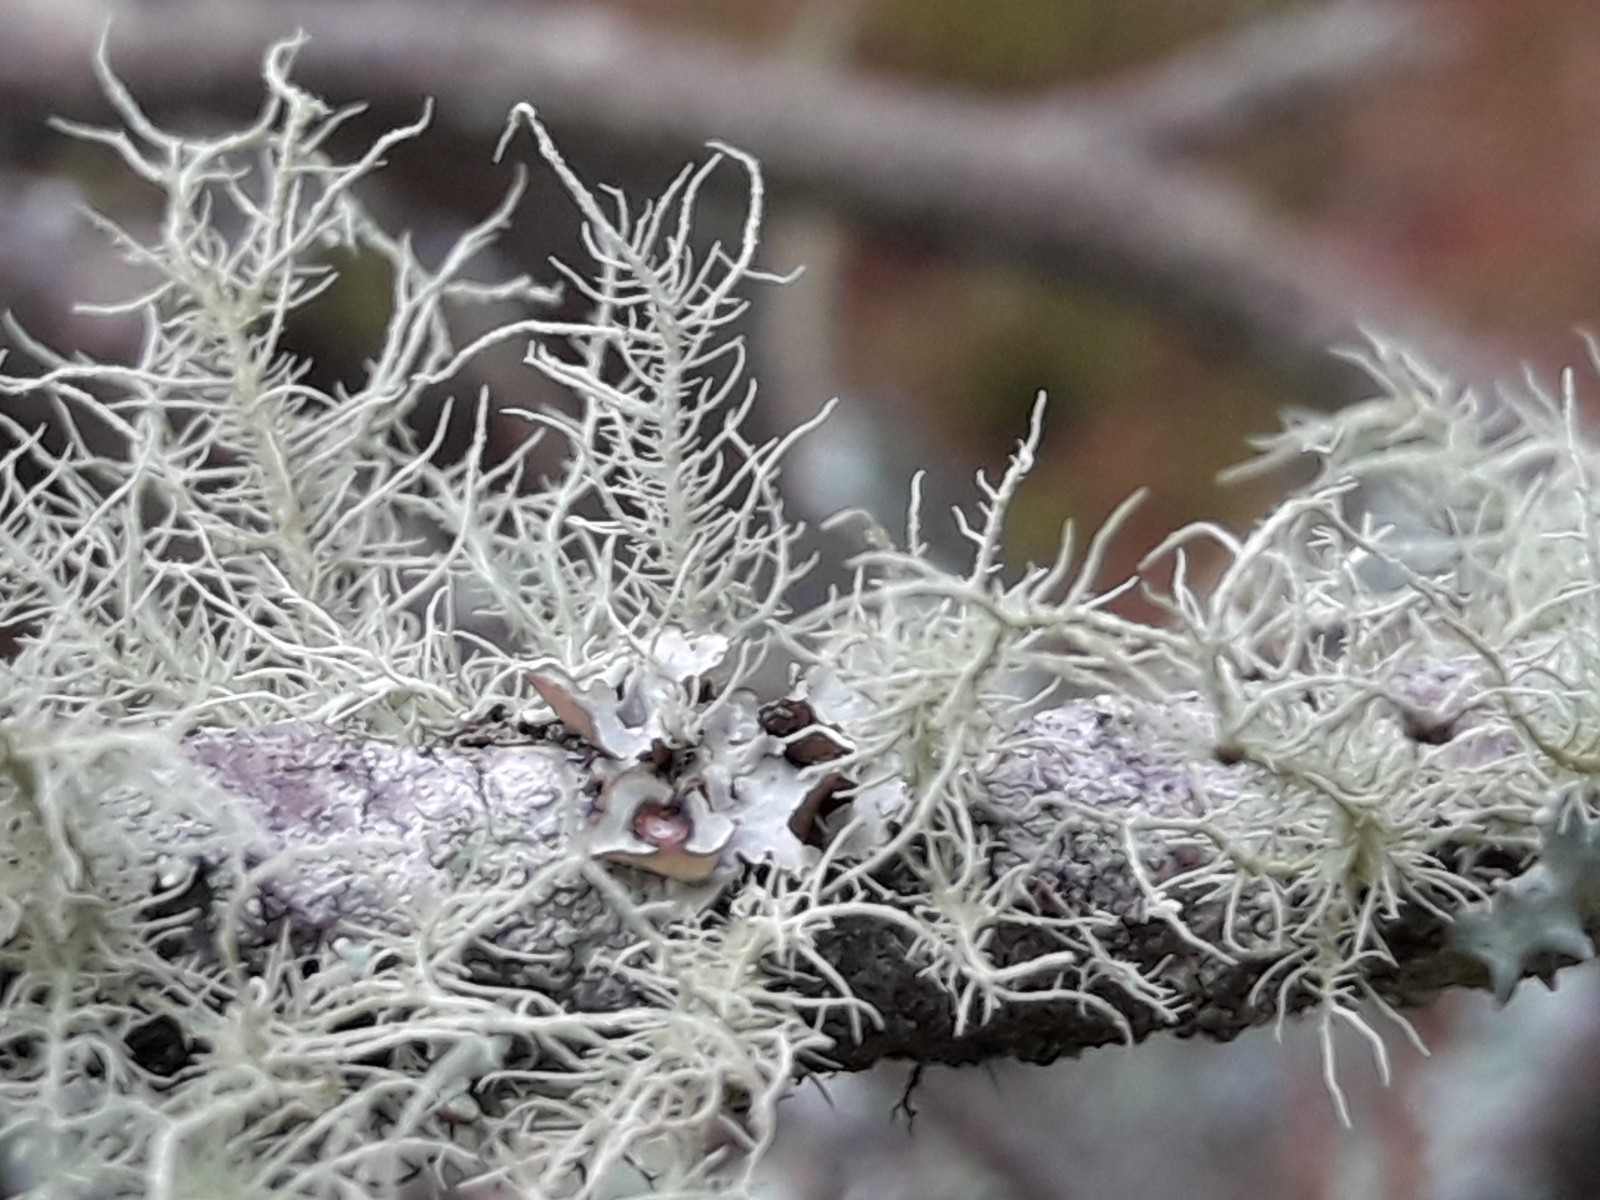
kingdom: Fungi
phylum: Ascomycota
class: Lecanoromycetes
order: Lecanorales
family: Parmeliaceae
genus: Usnea
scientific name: Usnea hirta
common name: liden skæglav
